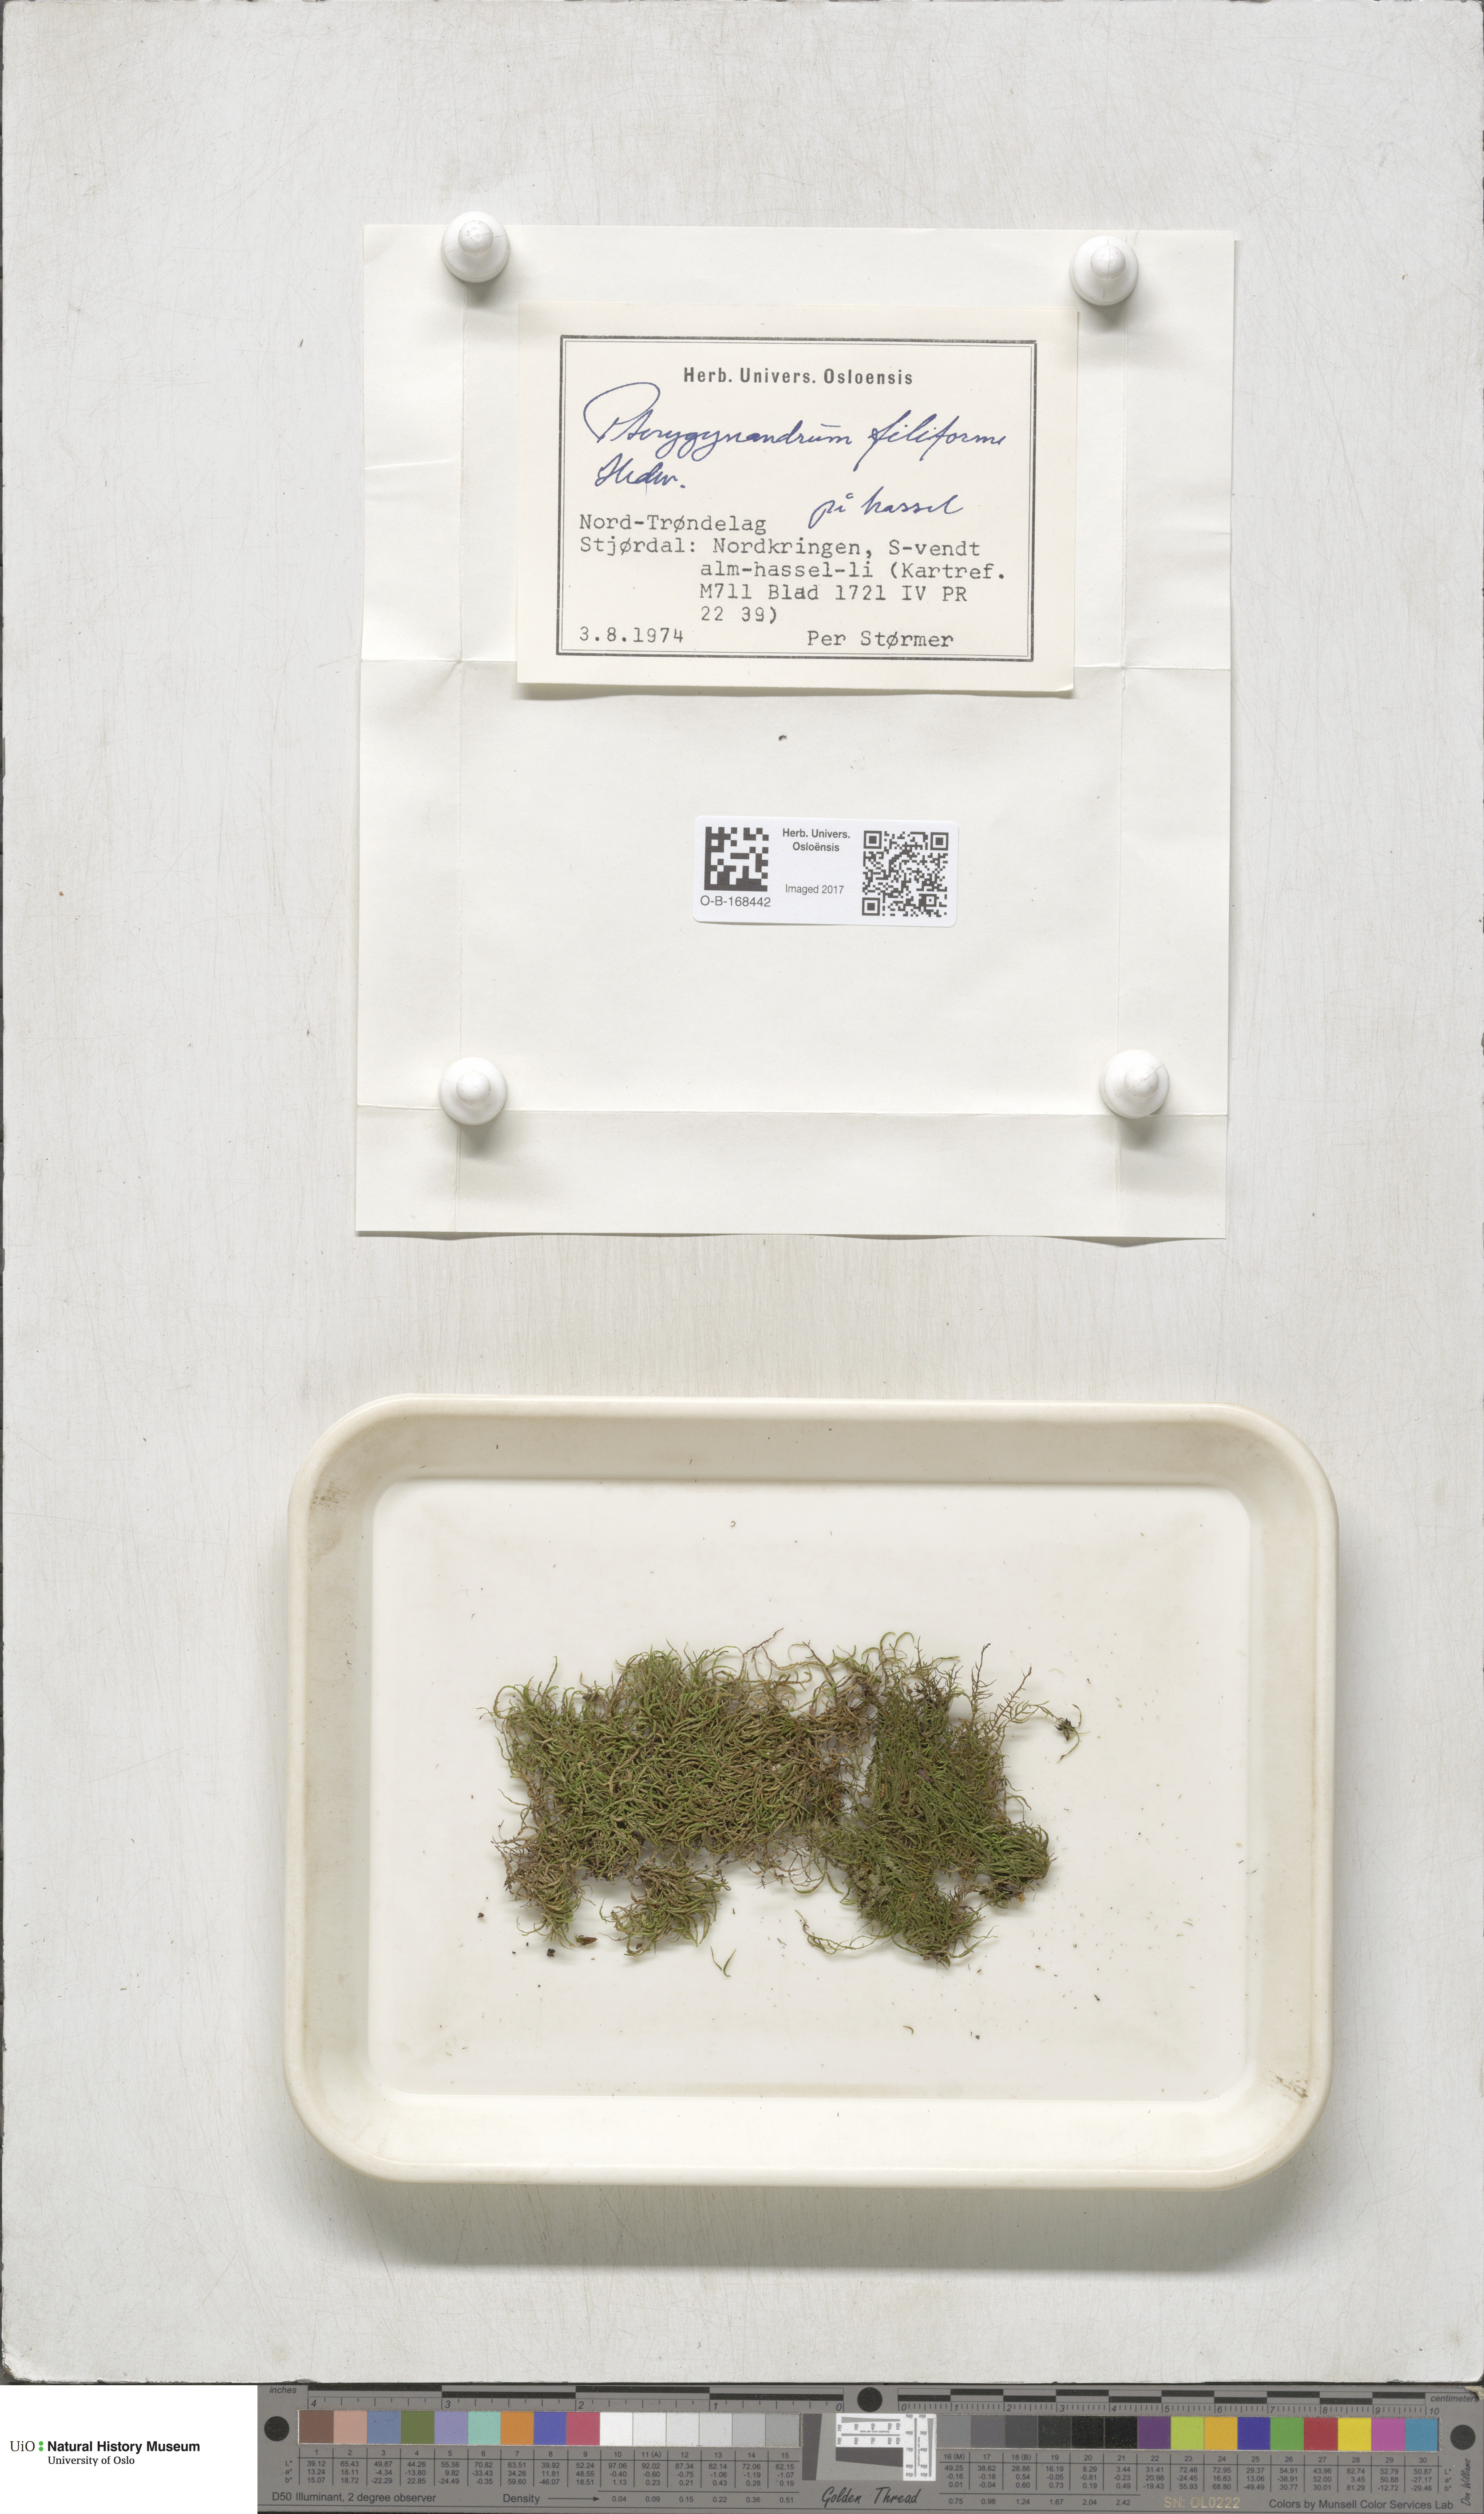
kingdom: Plantae
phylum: Bryophyta
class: Bryopsida
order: Hypnales
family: Pterigynandraceae
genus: Pterigynandrum
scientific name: Pterigynandrum filiforme
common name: Capillary wing moss
